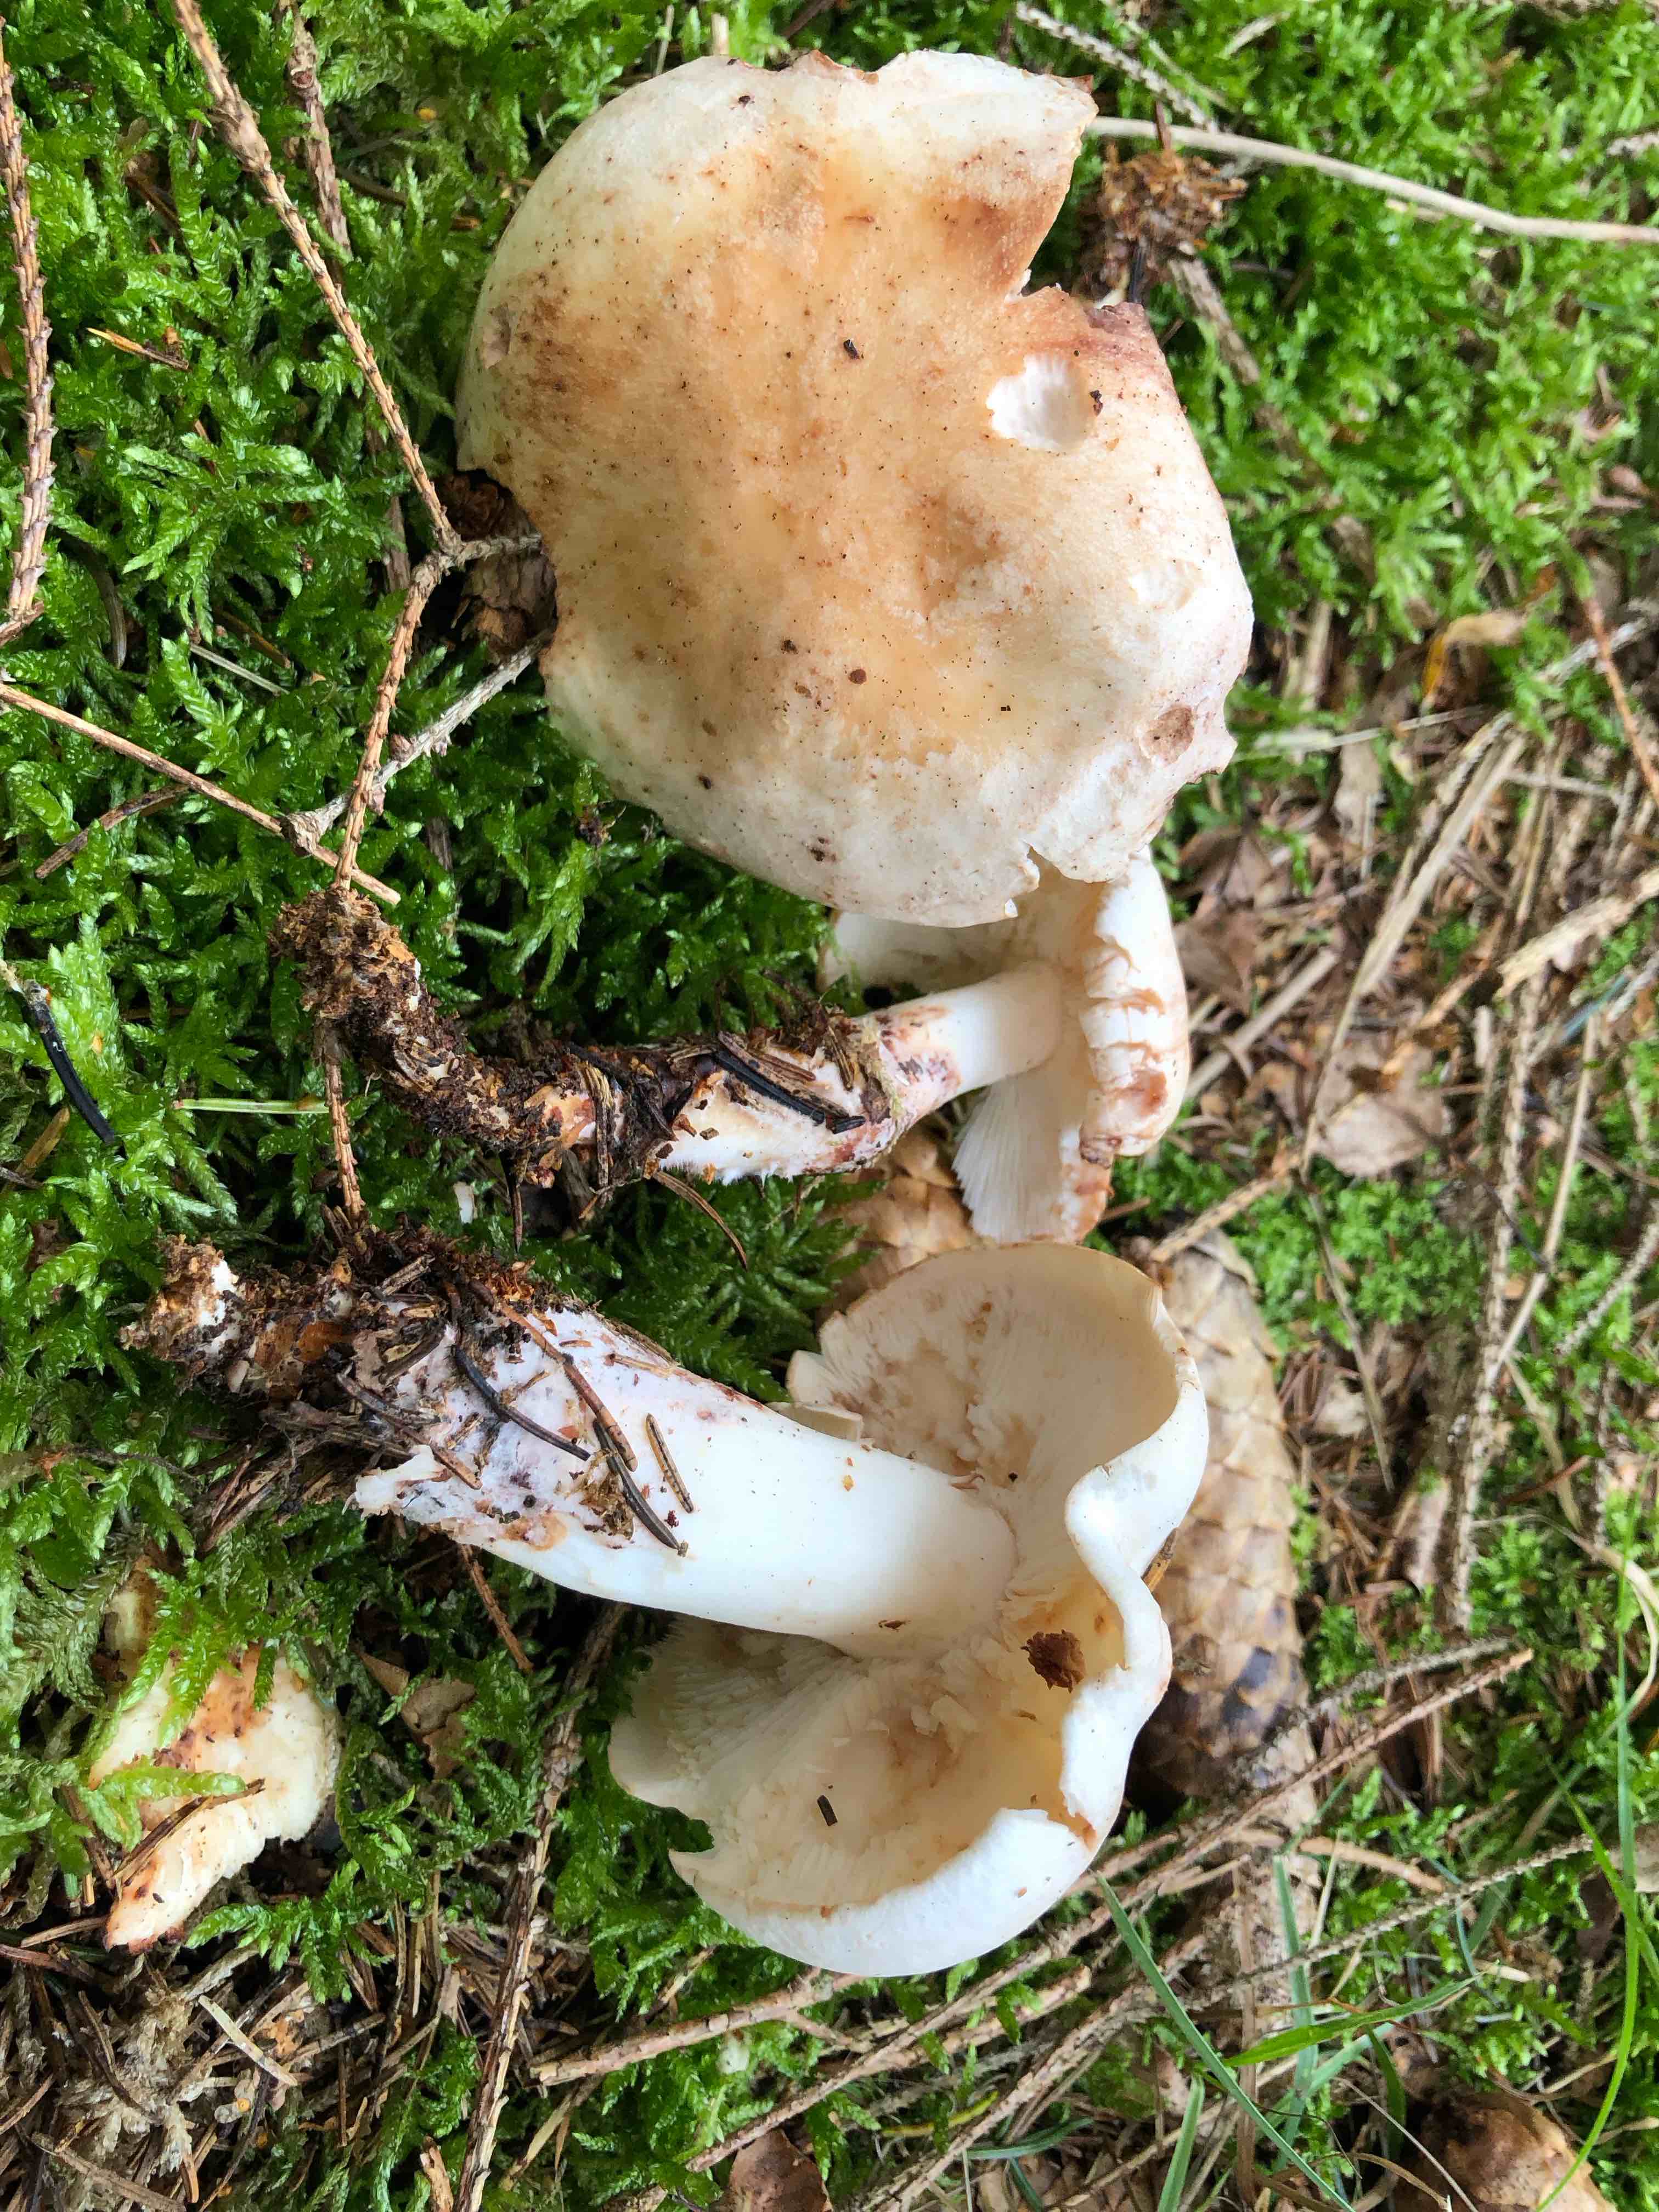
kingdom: Fungi
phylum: Basidiomycota
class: Agaricomycetes
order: Agaricales
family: Omphalotaceae
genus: Rhodocollybia
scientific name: Rhodocollybia maculata
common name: plettet fladhat
